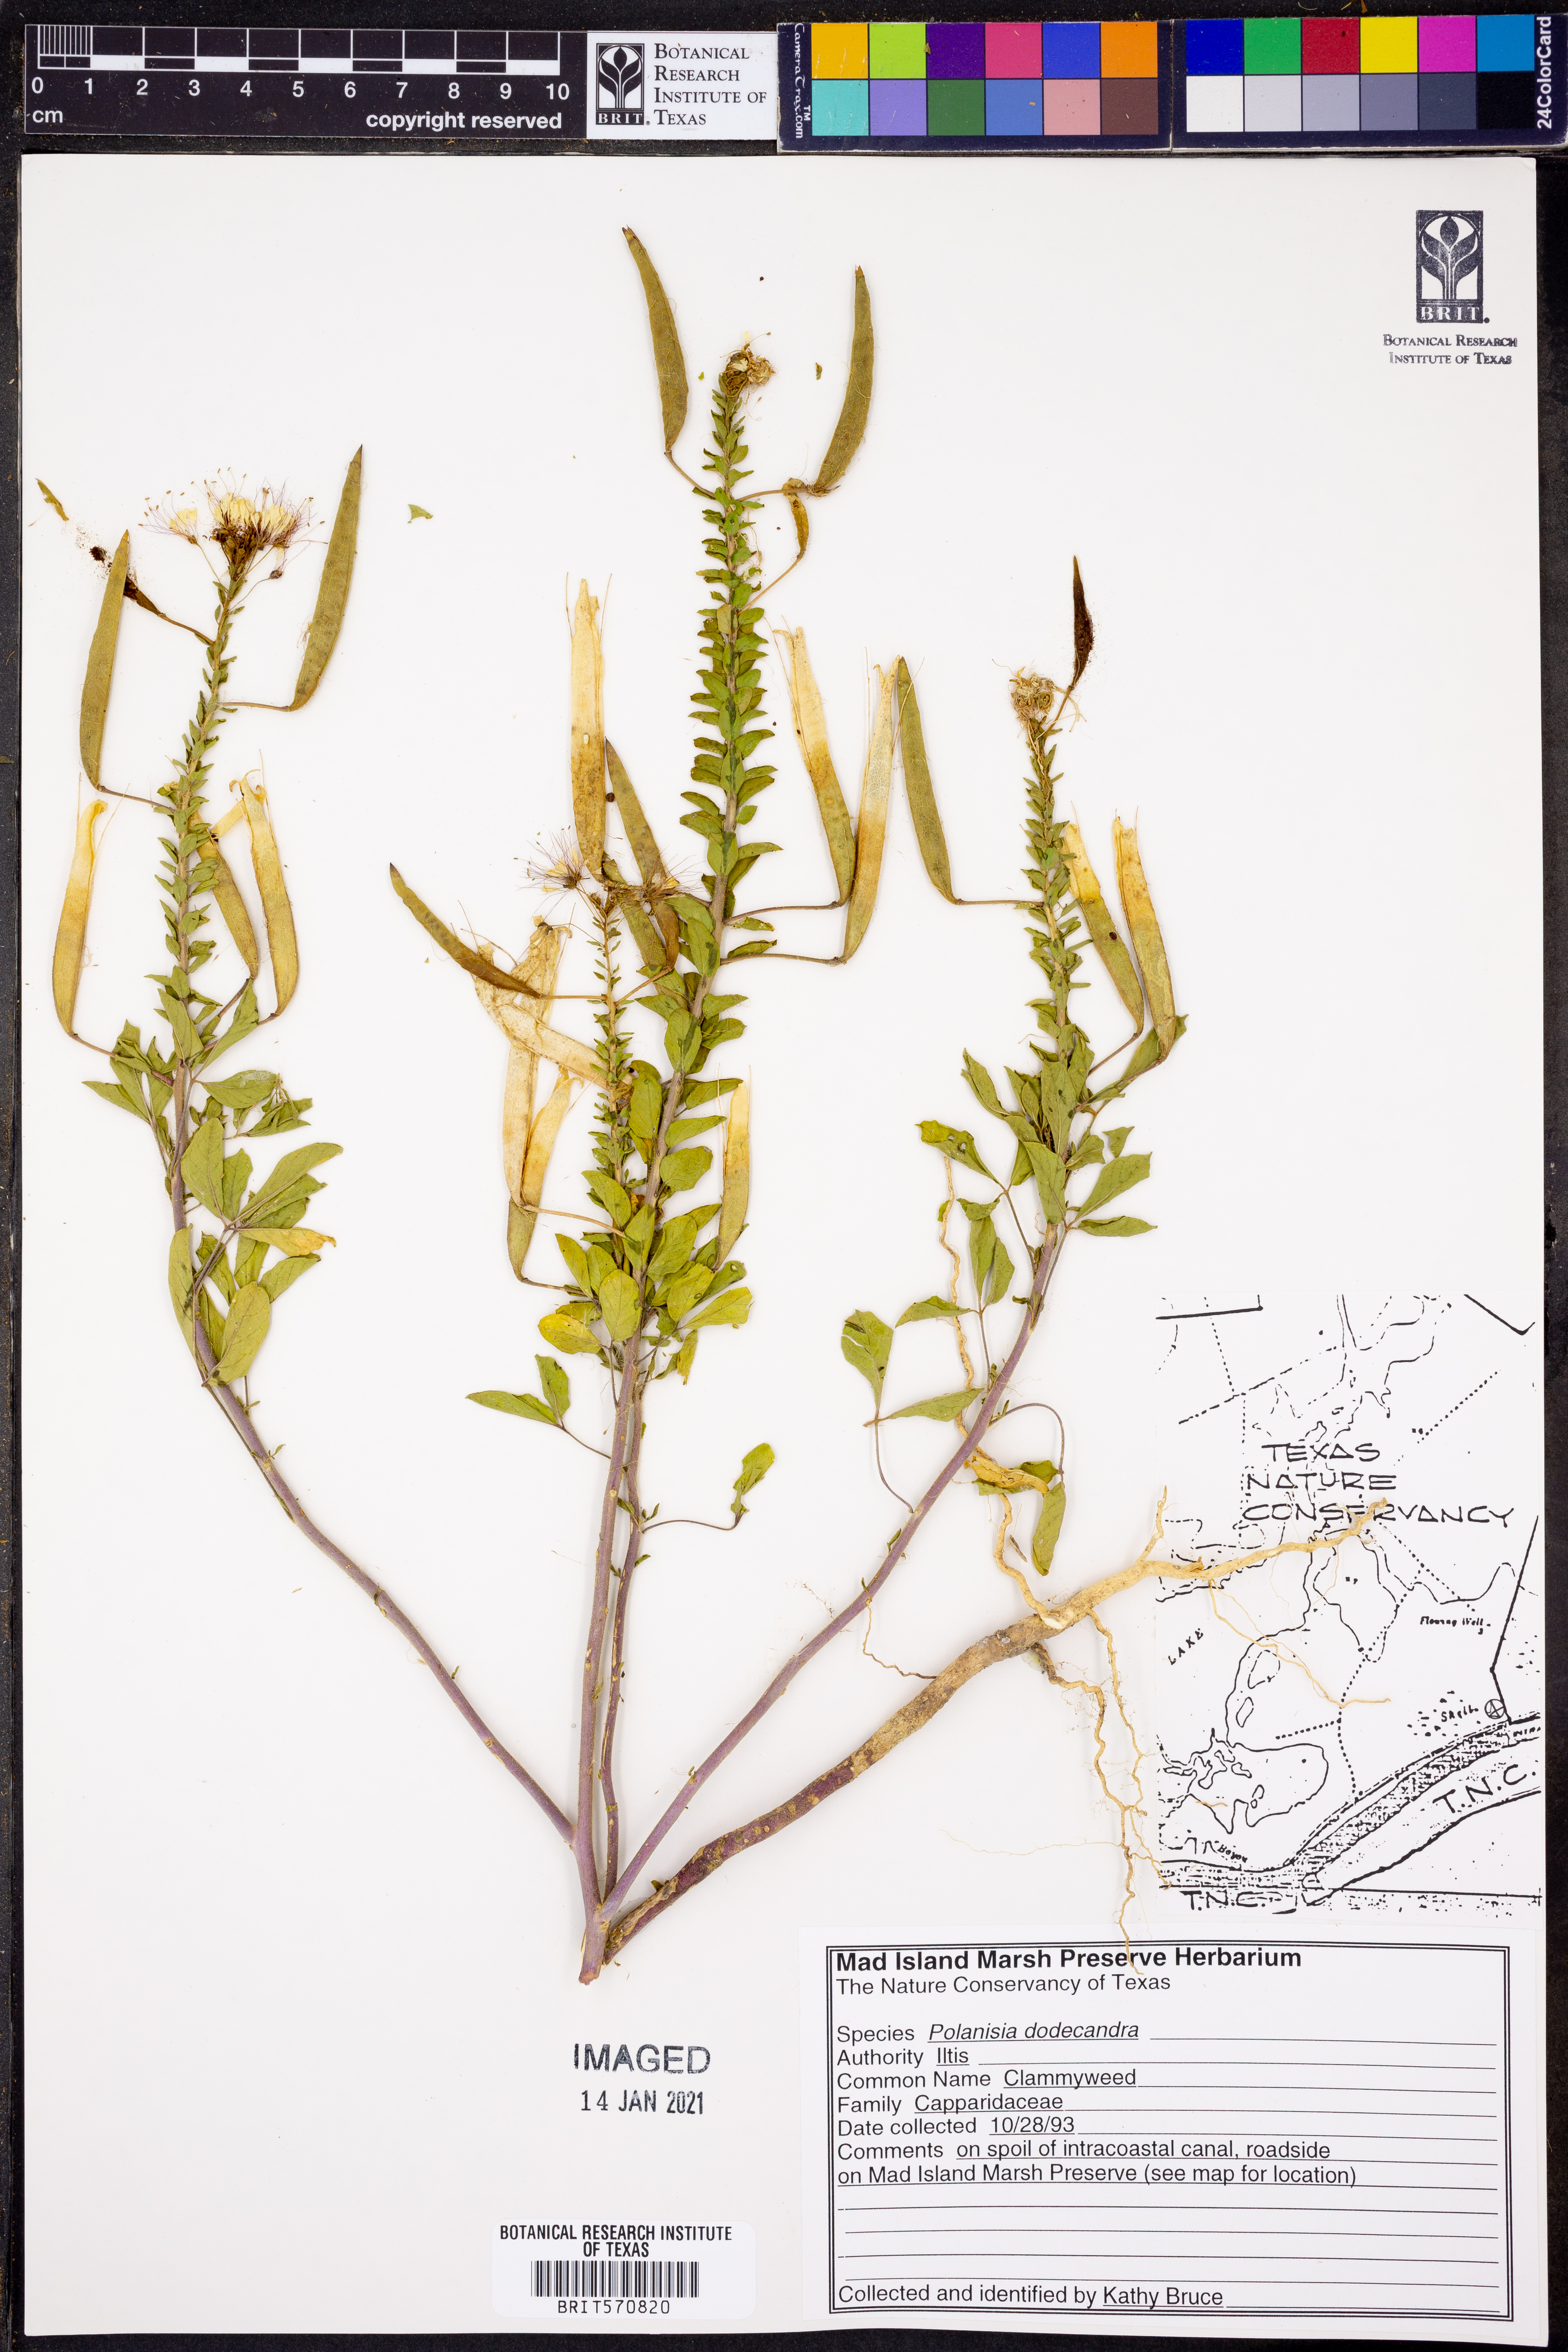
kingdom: Plantae
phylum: Tracheophyta
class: Magnoliopsida
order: Brassicales
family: Cleomaceae
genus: Polanisia
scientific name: Polanisia dodecandra
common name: Clammyweed
